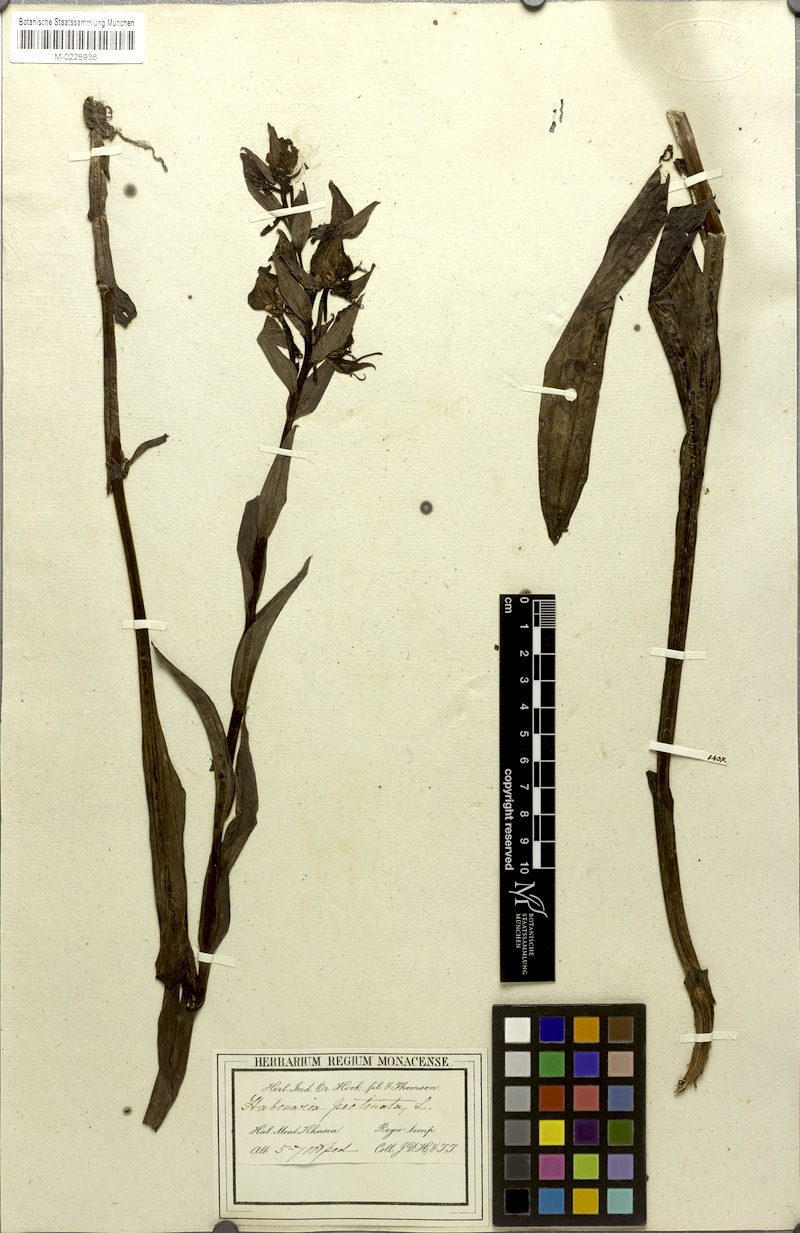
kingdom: Plantae
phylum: Tracheophyta
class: Liliopsida
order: Asparagales
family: Orchidaceae
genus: Habenaria
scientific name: Habenaria pectinata
